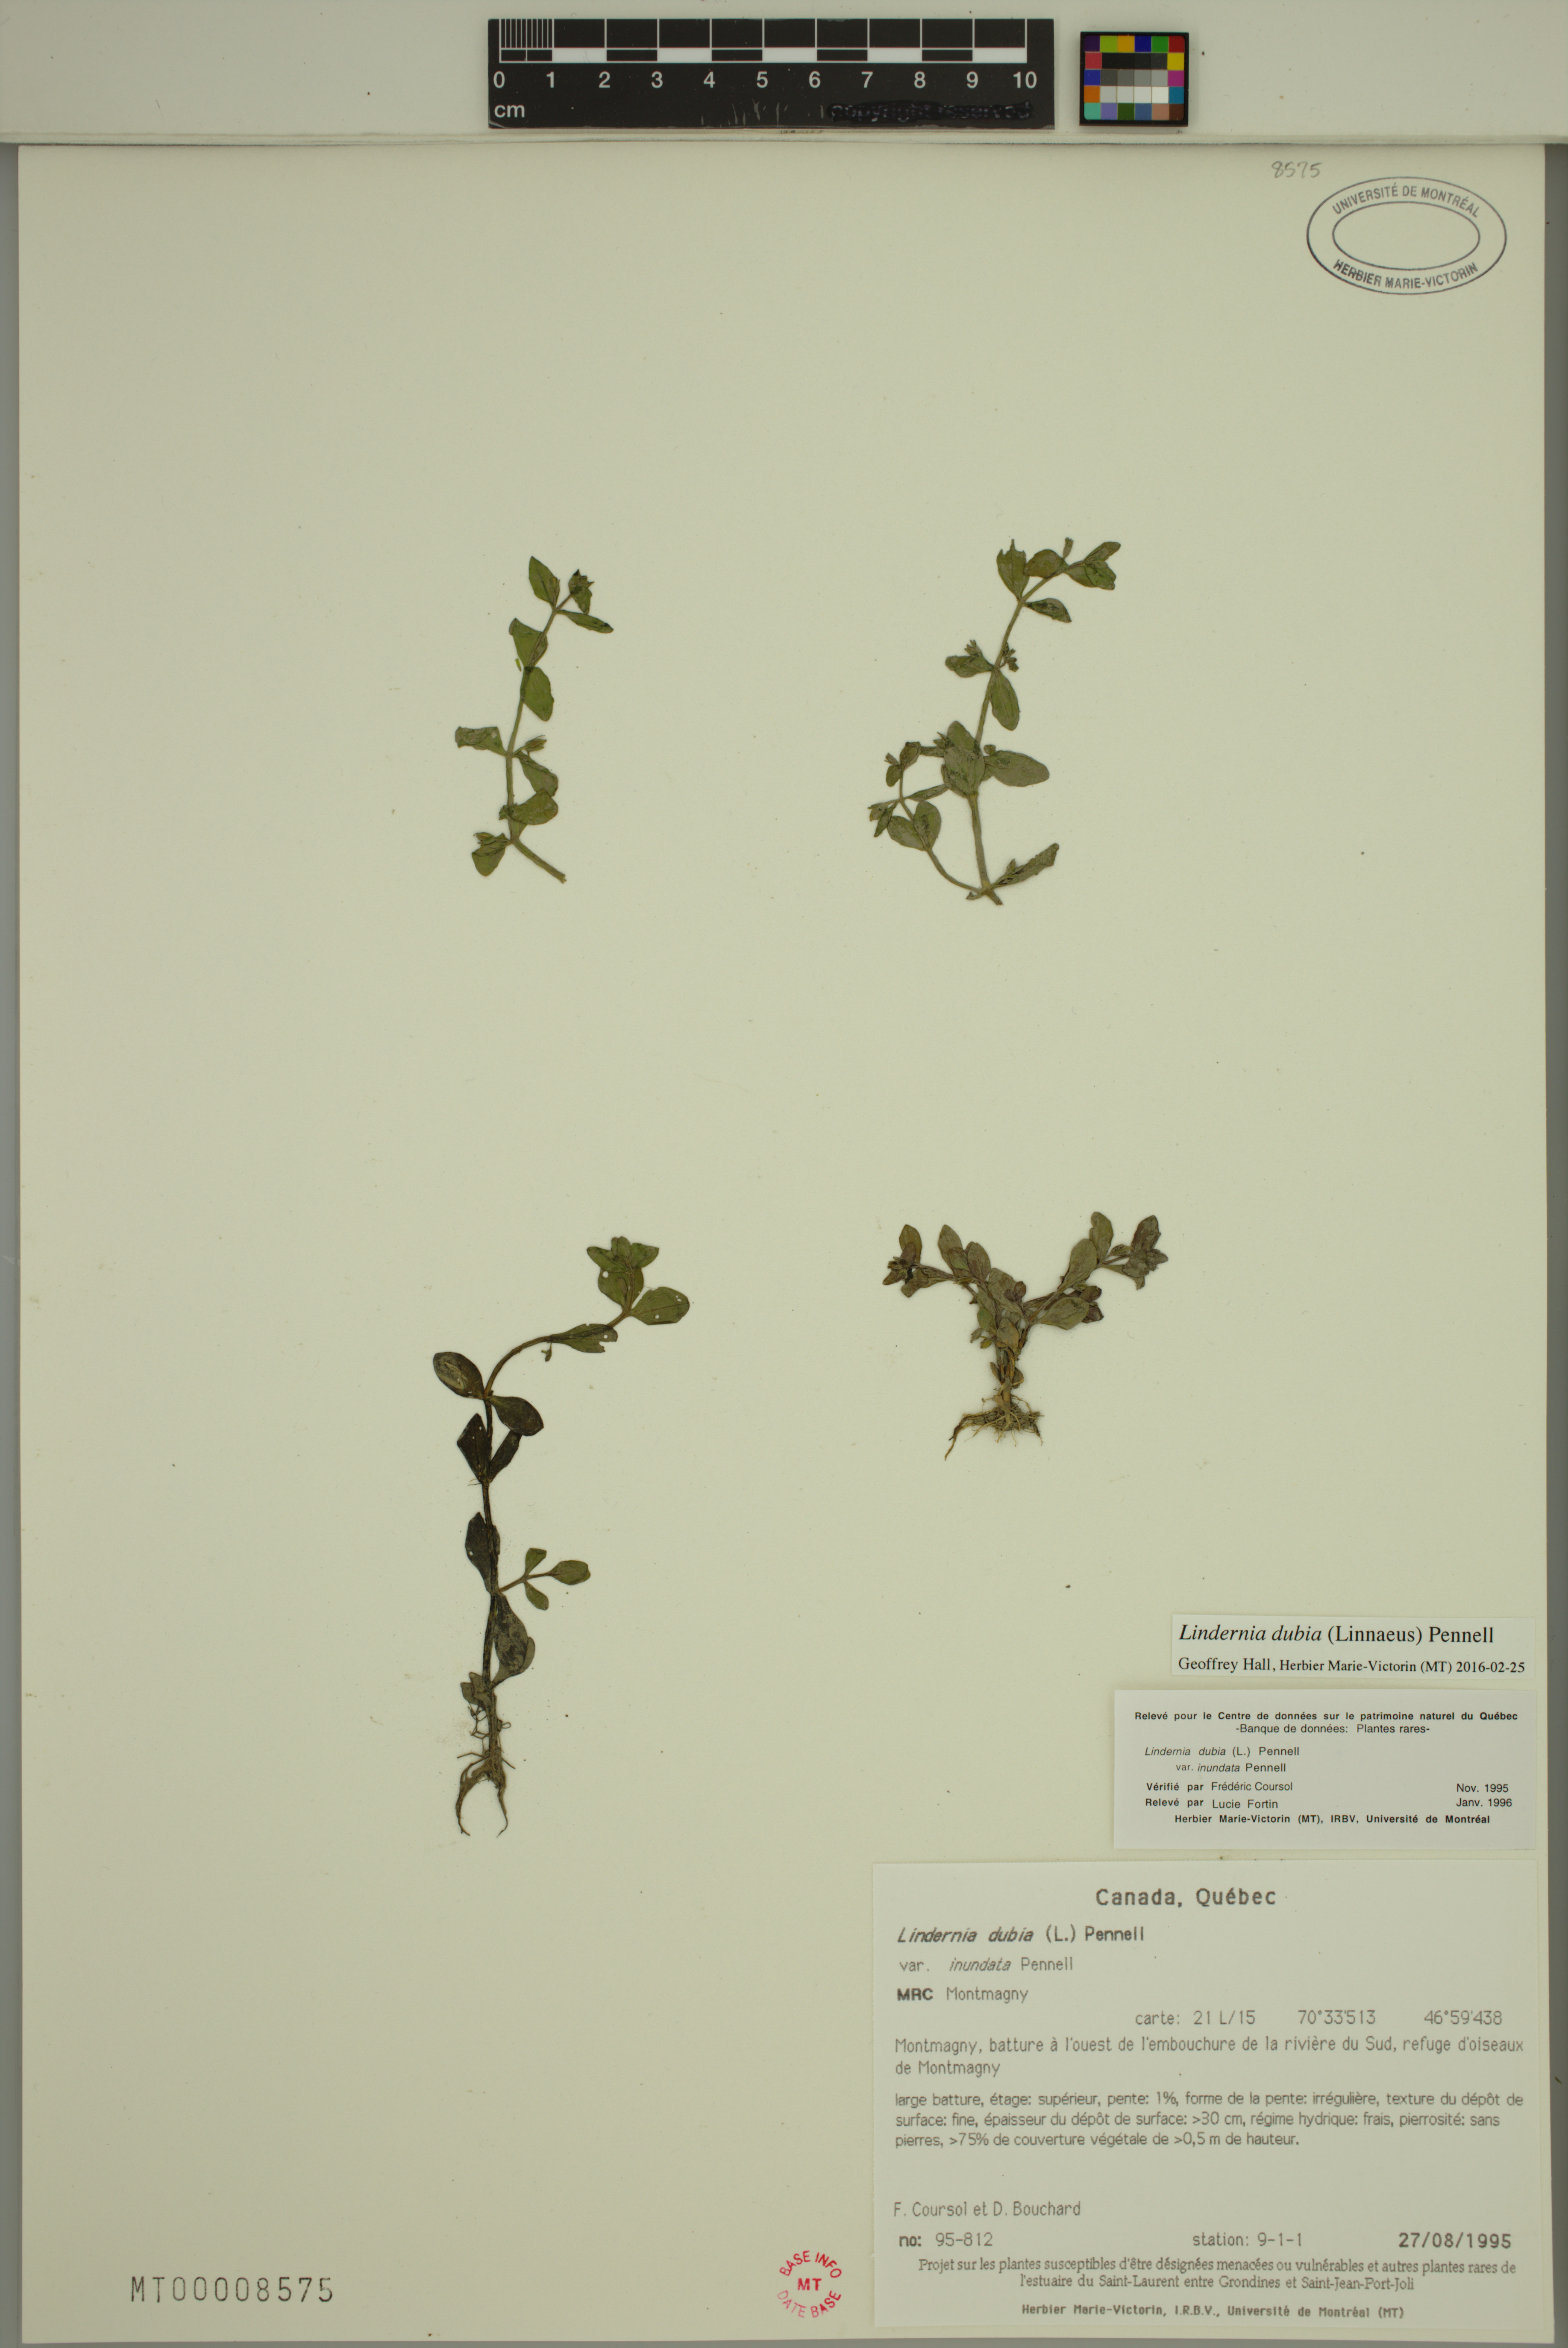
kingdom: Plantae
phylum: Tracheophyta
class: Magnoliopsida
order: Lamiales
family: Linderniaceae
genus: Lindernia
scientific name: Lindernia dubia
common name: Annual false pimpernel
